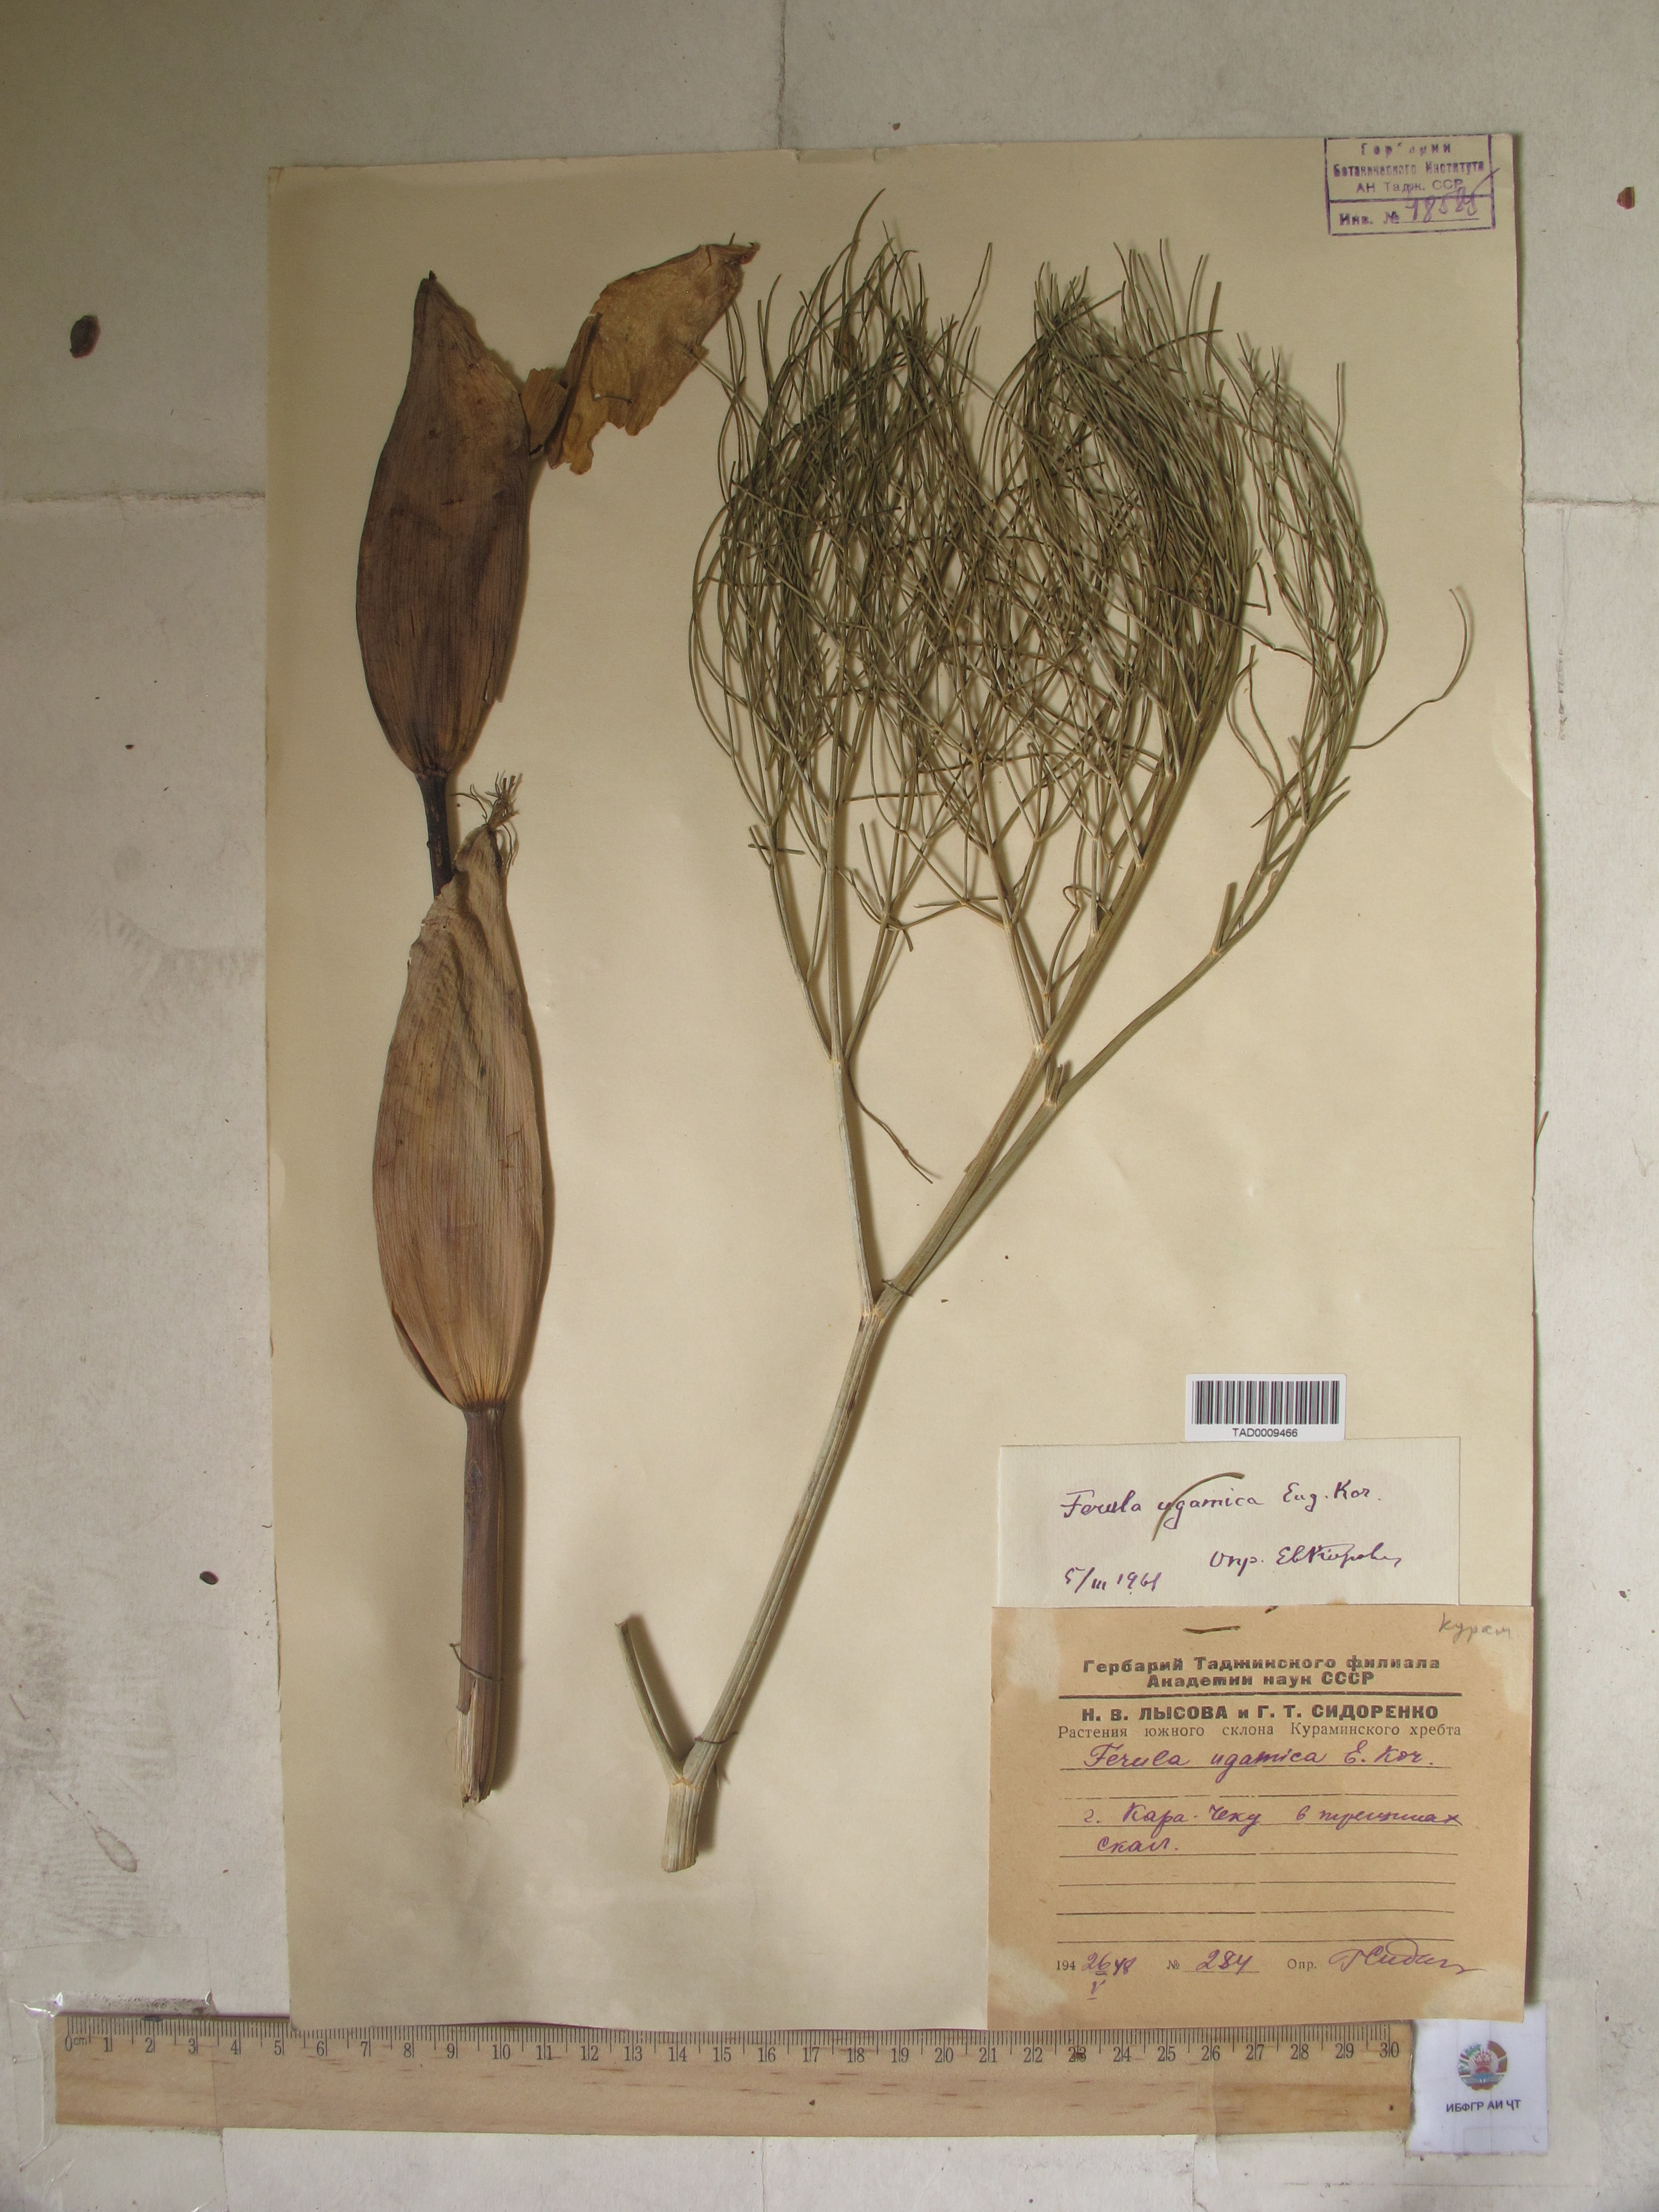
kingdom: Plantae
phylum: Tracheophyta
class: Magnoliopsida
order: Apiales
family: Apiaceae
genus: Ferula
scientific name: Ferula ugamica
